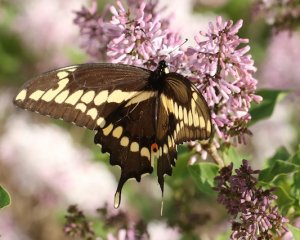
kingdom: Animalia
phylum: Arthropoda
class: Insecta
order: Lepidoptera
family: Papilionidae
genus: Papilio
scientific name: Papilio cresphontes
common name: Eastern Giant Swallowtail
